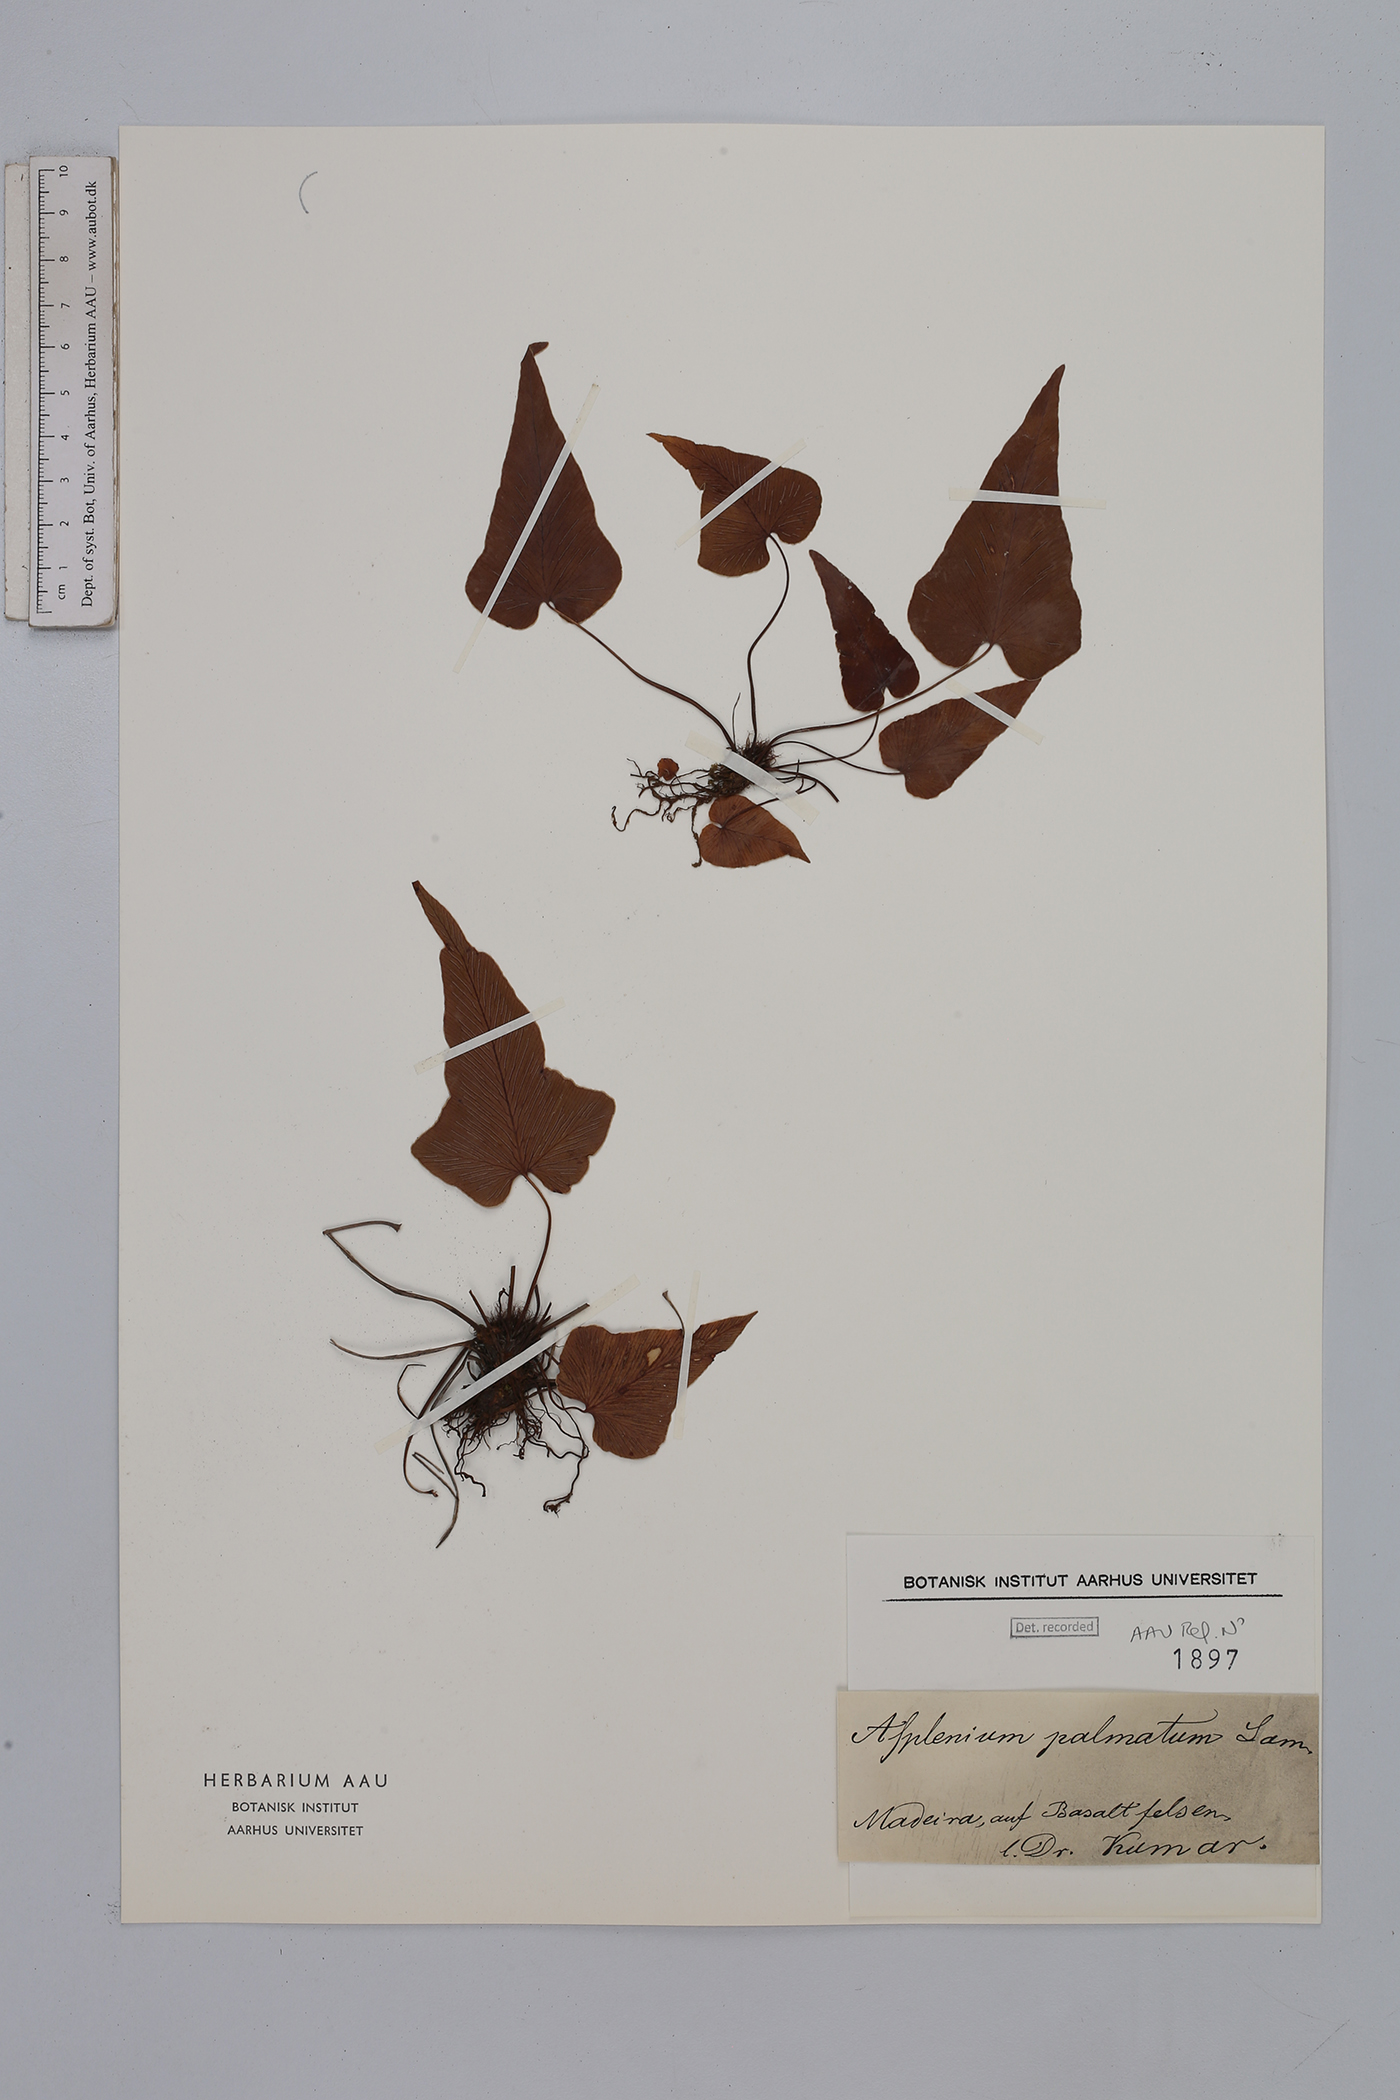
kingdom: Plantae
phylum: Tracheophyta
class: Polypodiopsida
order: Polypodiales
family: Aspleniaceae
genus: Asplenium
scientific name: Asplenium hemionitis
